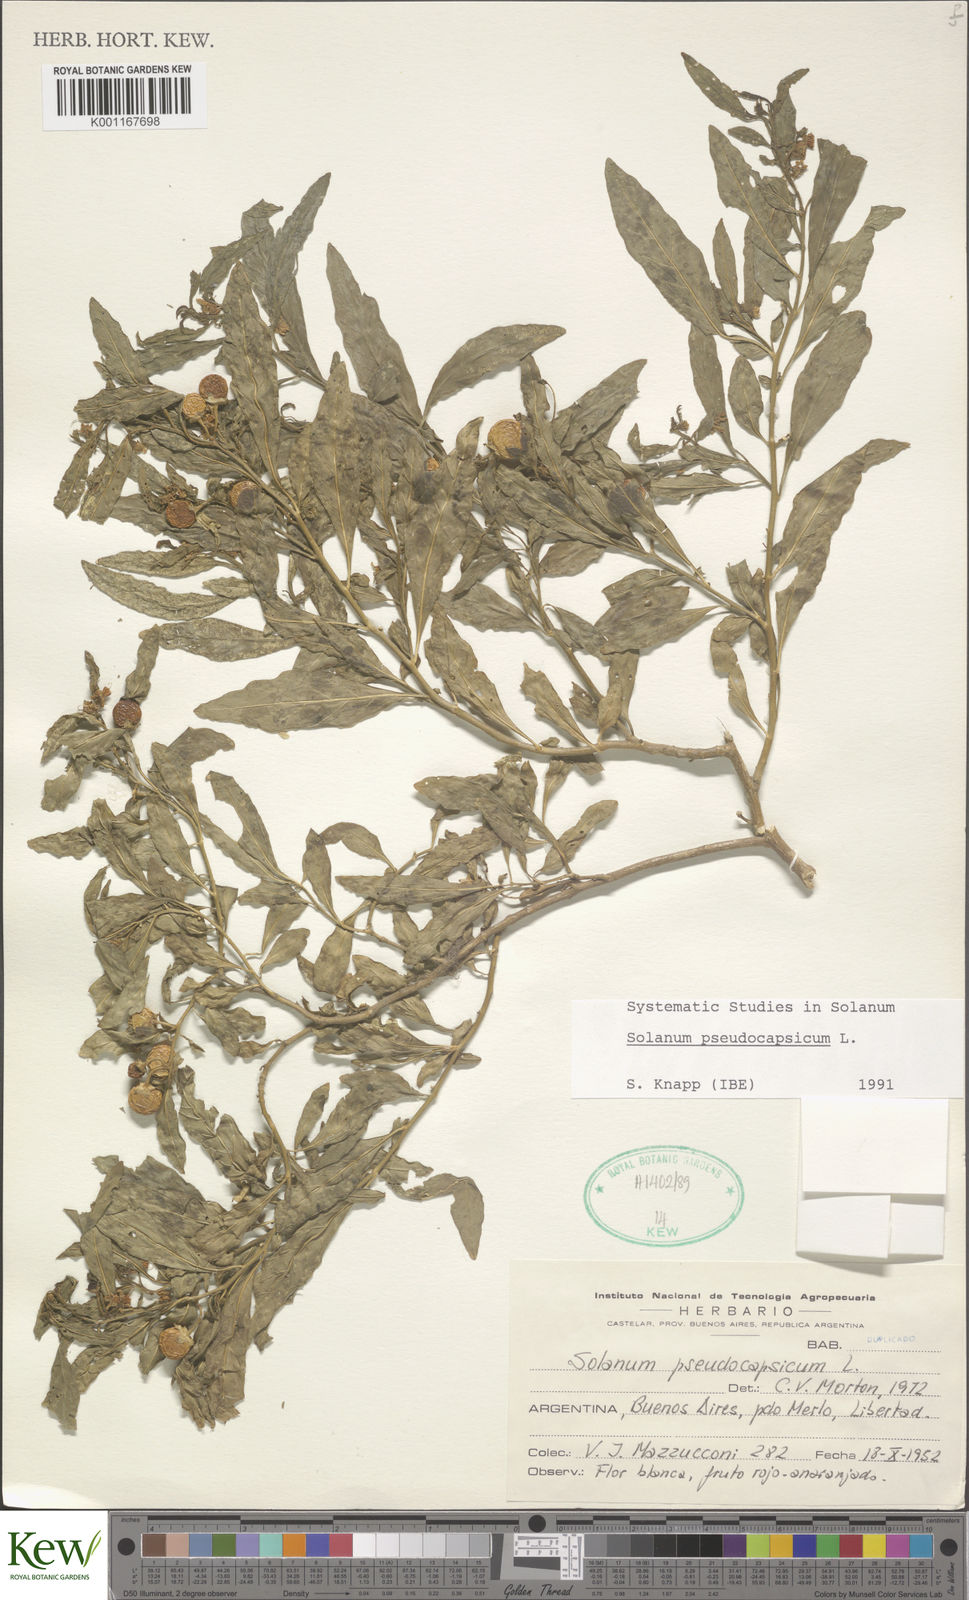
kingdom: Plantae
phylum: Tracheophyta
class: Magnoliopsida
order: Solanales
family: Solanaceae
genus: Solanum
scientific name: Solanum pseudocapsicum
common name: Jerusalem cherry
